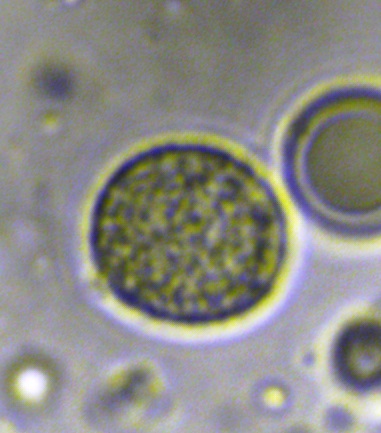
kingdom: Fungi
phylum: Basidiomycota
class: Agaricomycetes
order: Cantharellales
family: Hydnaceae
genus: Hydnum
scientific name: Hydnum
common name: pigsvamp
